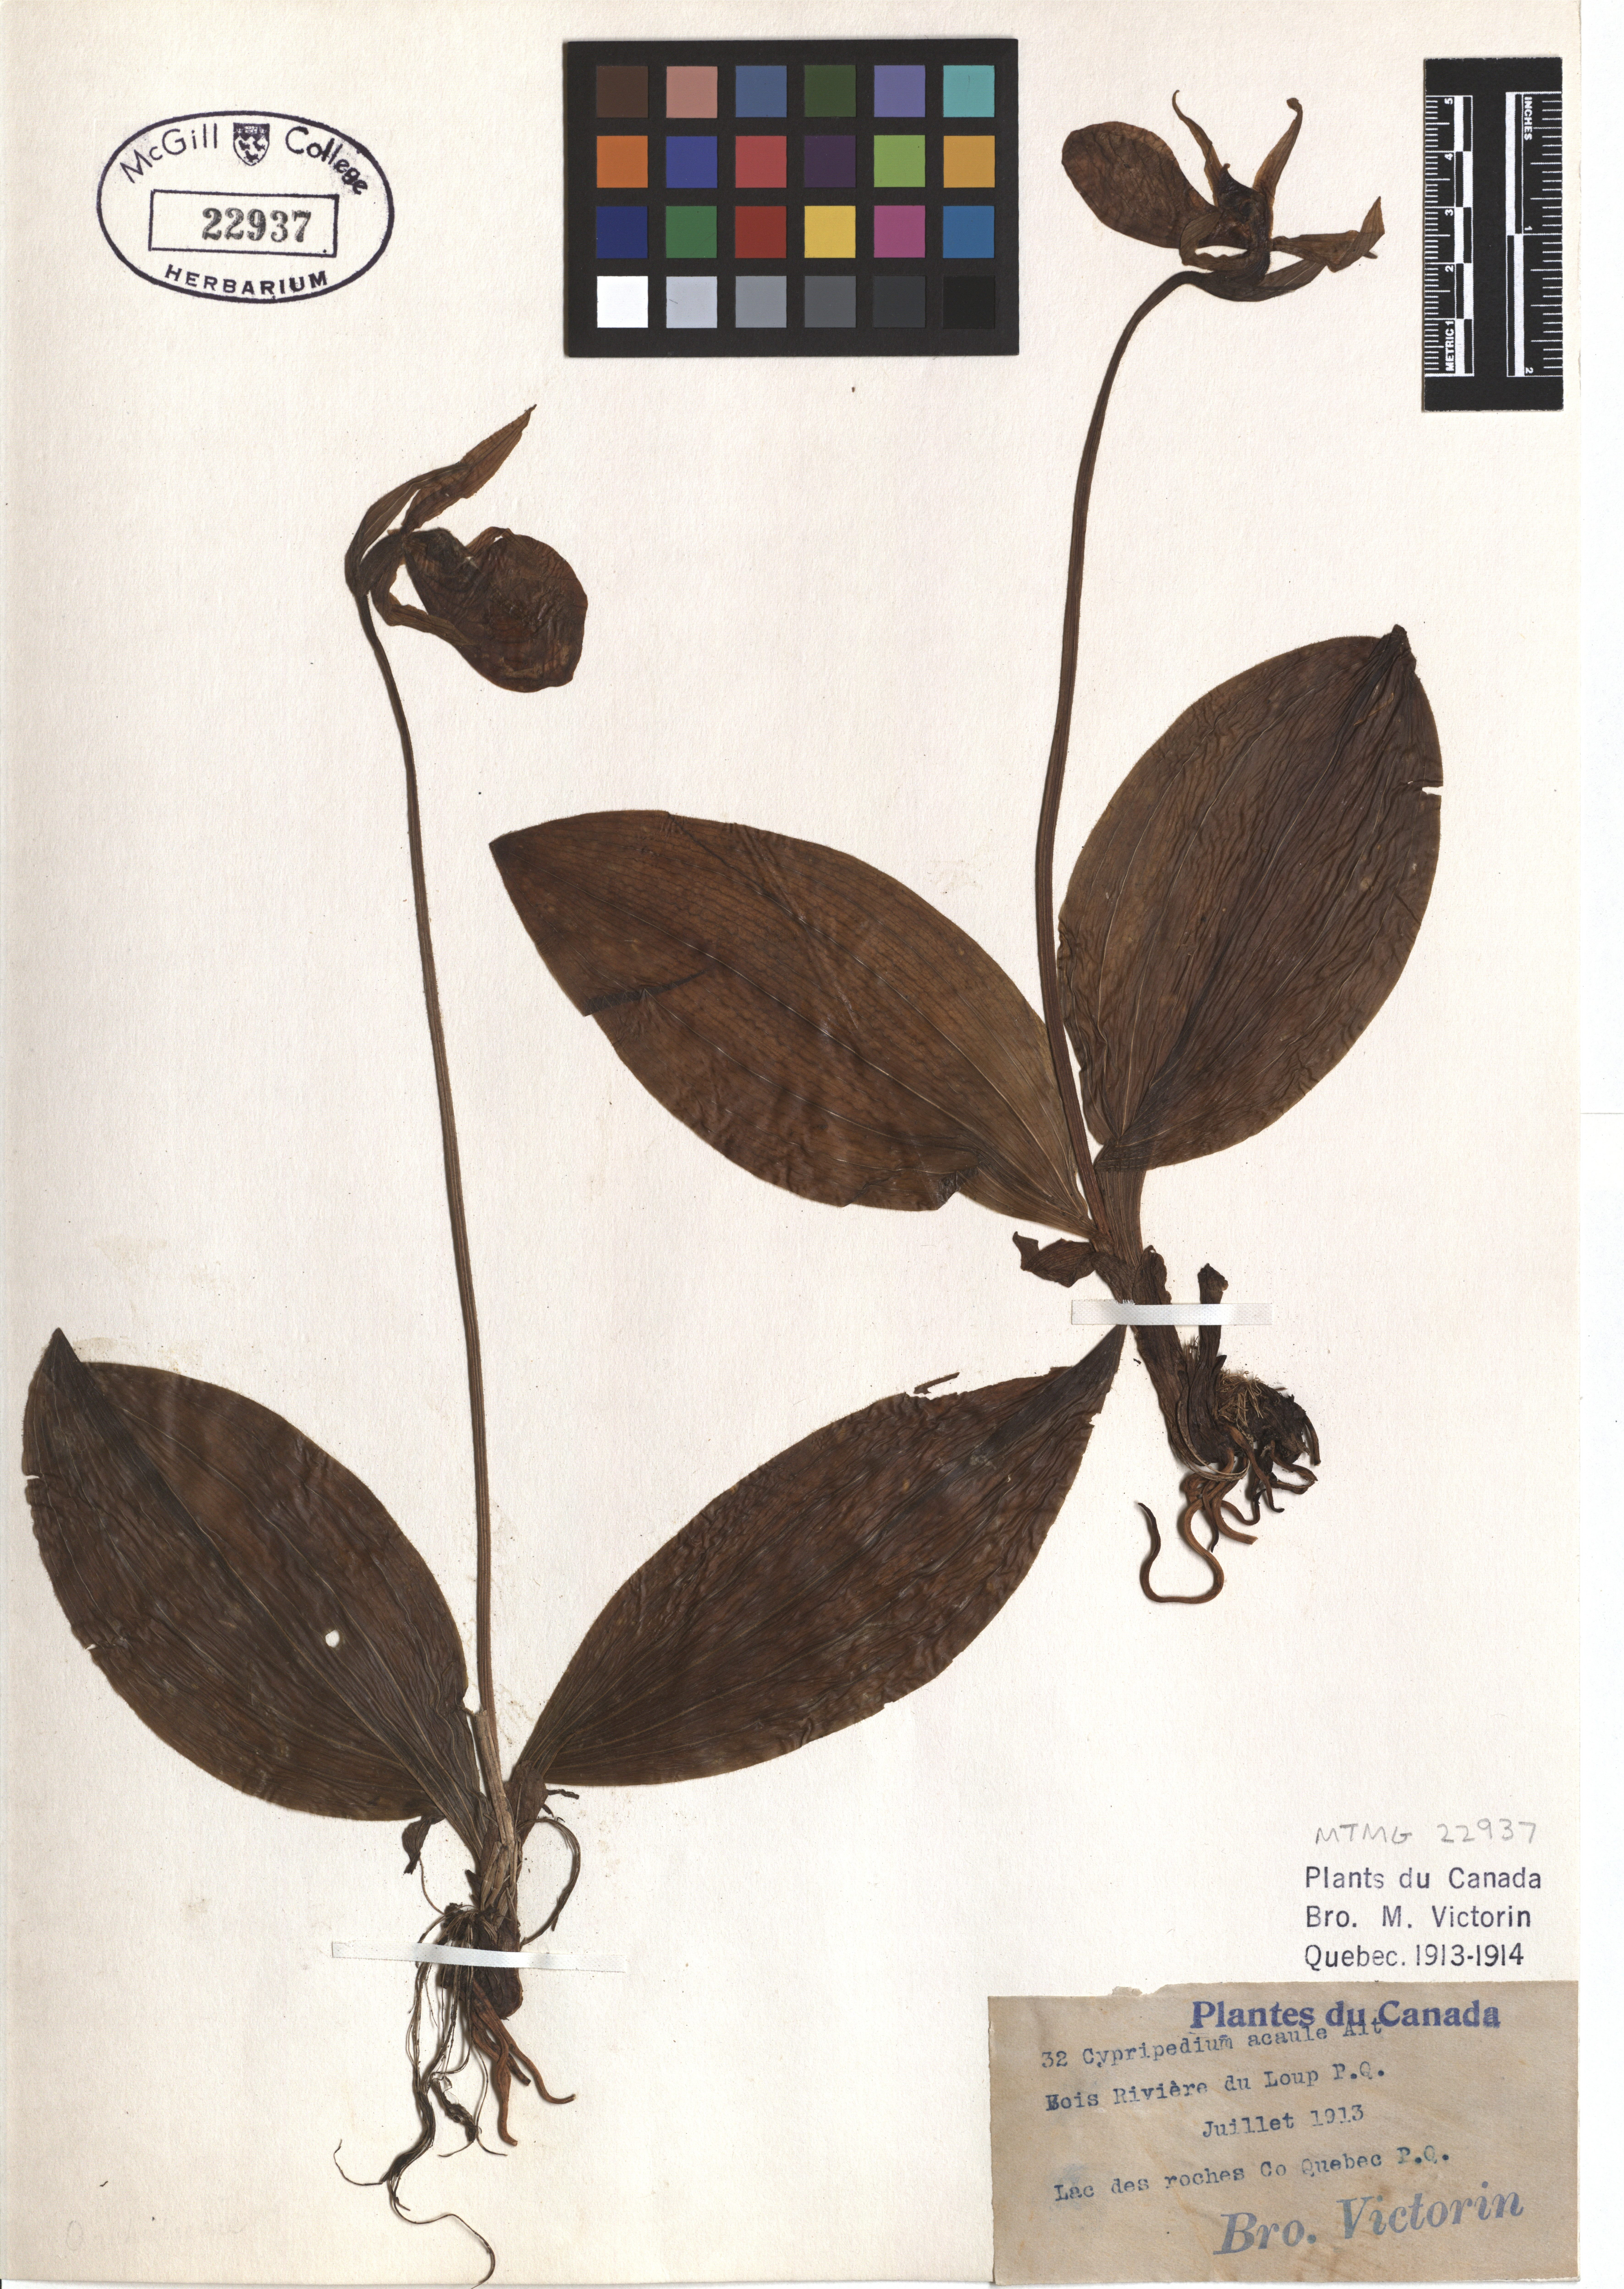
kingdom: Plantae
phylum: Tracheophyta
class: Liliopsida
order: Asparagales
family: Orchidaceae
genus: Cypripedium
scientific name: Cypripedium acaule
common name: Pink lady's-slipper
